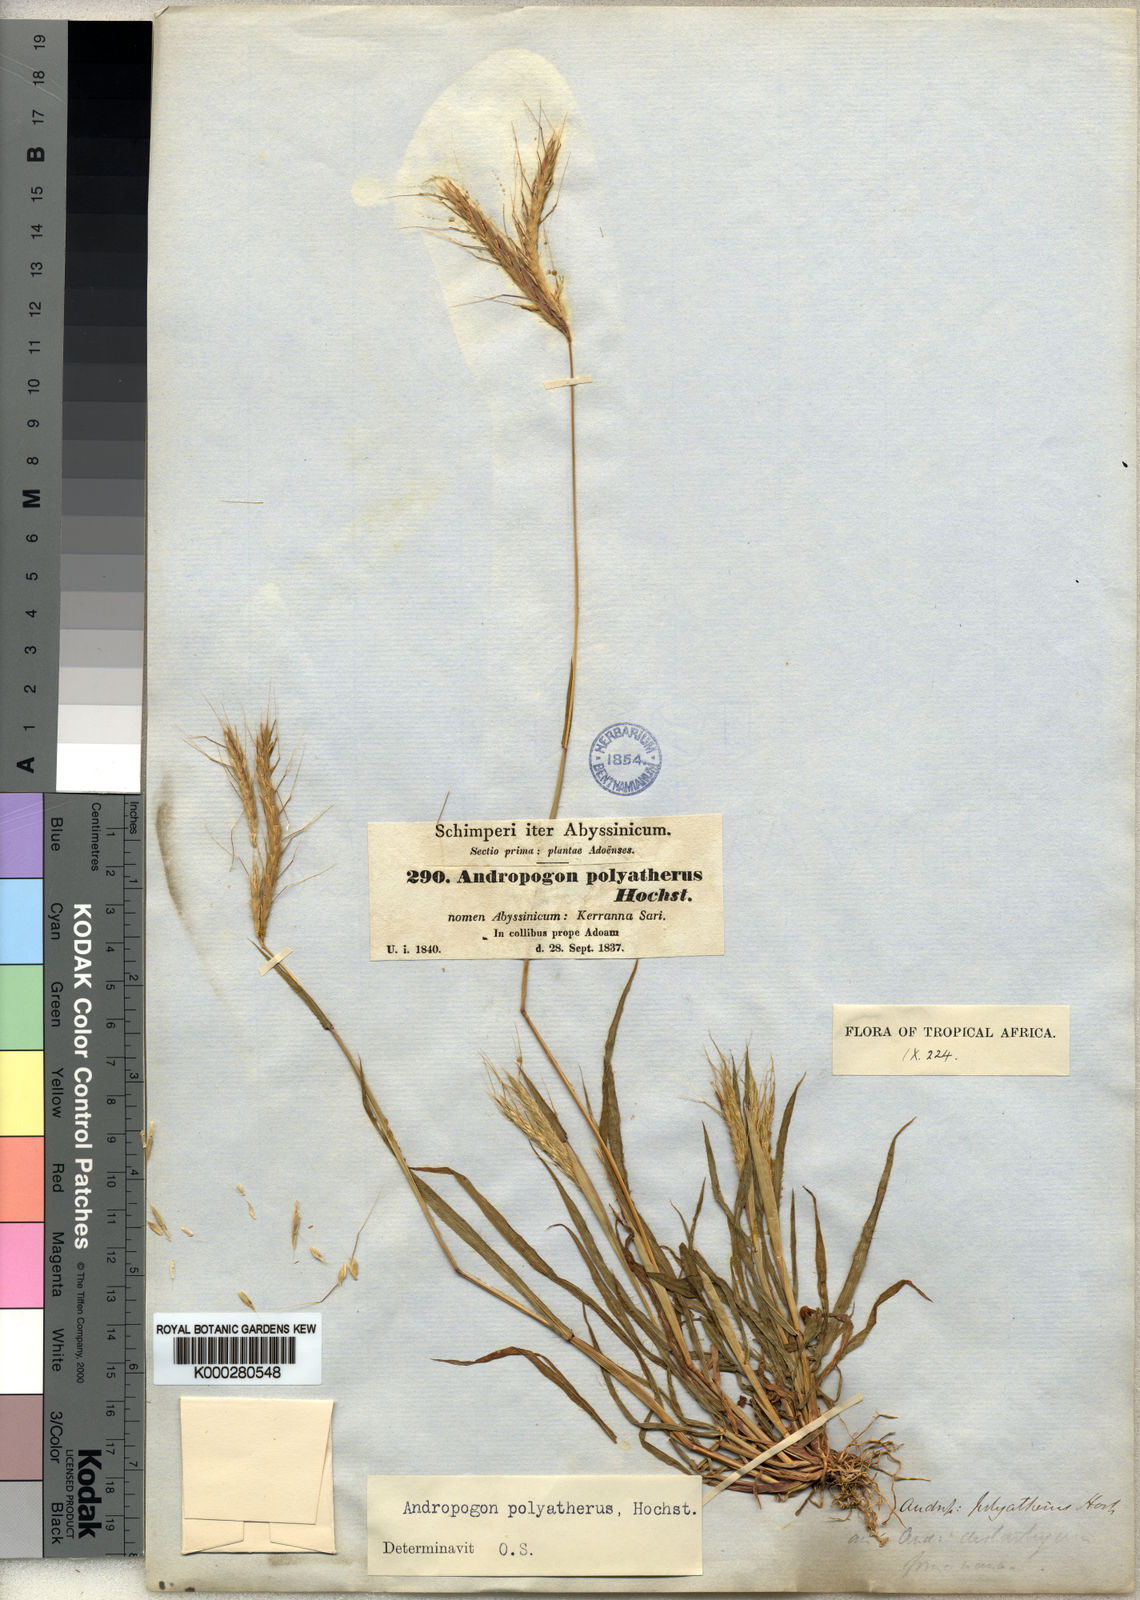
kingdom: Plantae
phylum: Tracheophyta
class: Liliopsida
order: Poales
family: Poaceae
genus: Andropogon
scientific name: Andropogon abyssinicus
